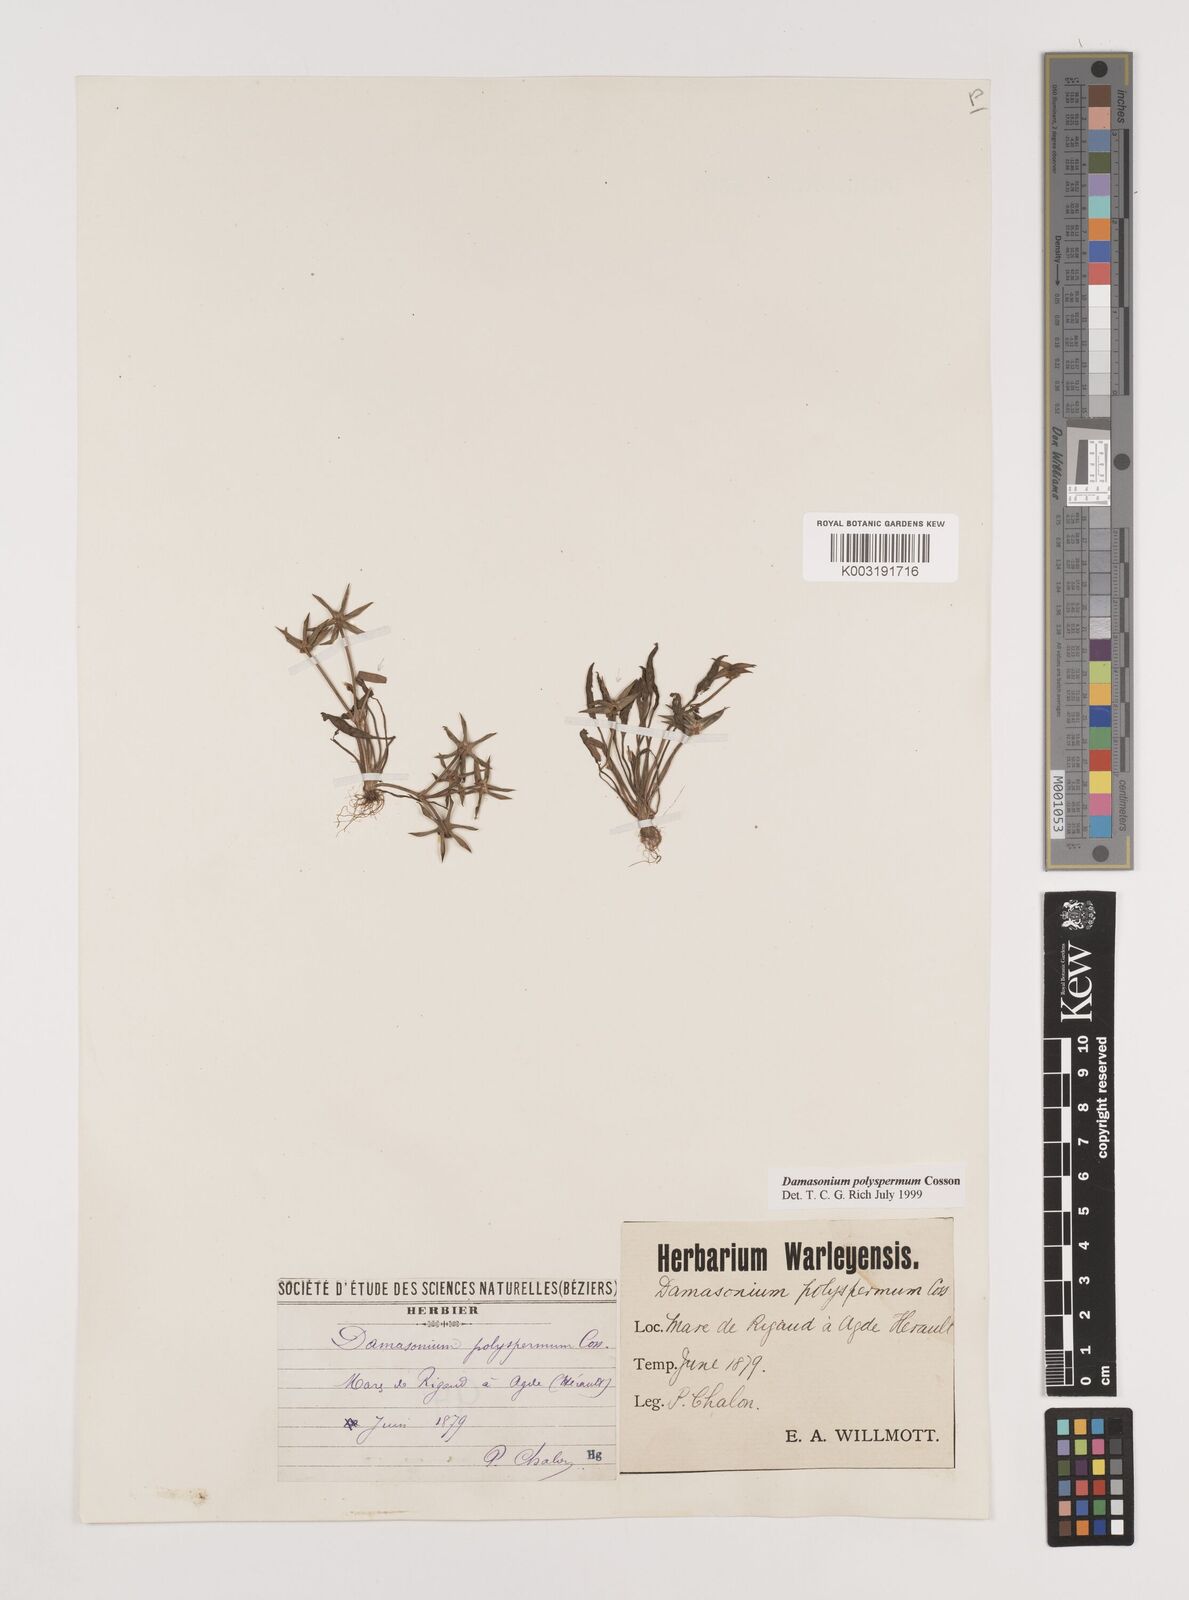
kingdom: Plantae
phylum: Tracheophyta
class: Liliopsida
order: Alismatales
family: Alismataceae
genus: Damasonium
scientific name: Damasonium polyspermum
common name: Starfruit
